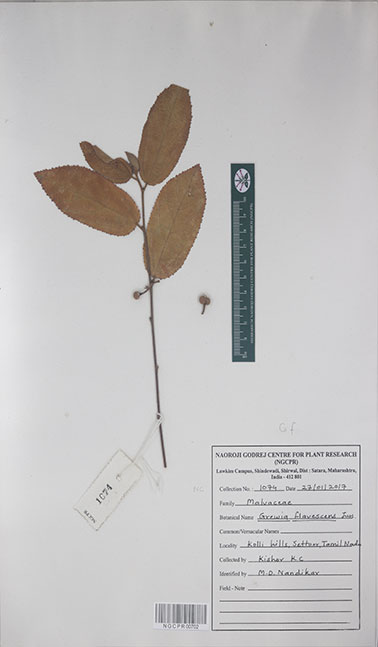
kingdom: Plantae
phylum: Tracheophyta
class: Magnoliopsida
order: Malvales
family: Malvaceae
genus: Grewia
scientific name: Grewia flavescens
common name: Sandpaper raisin
